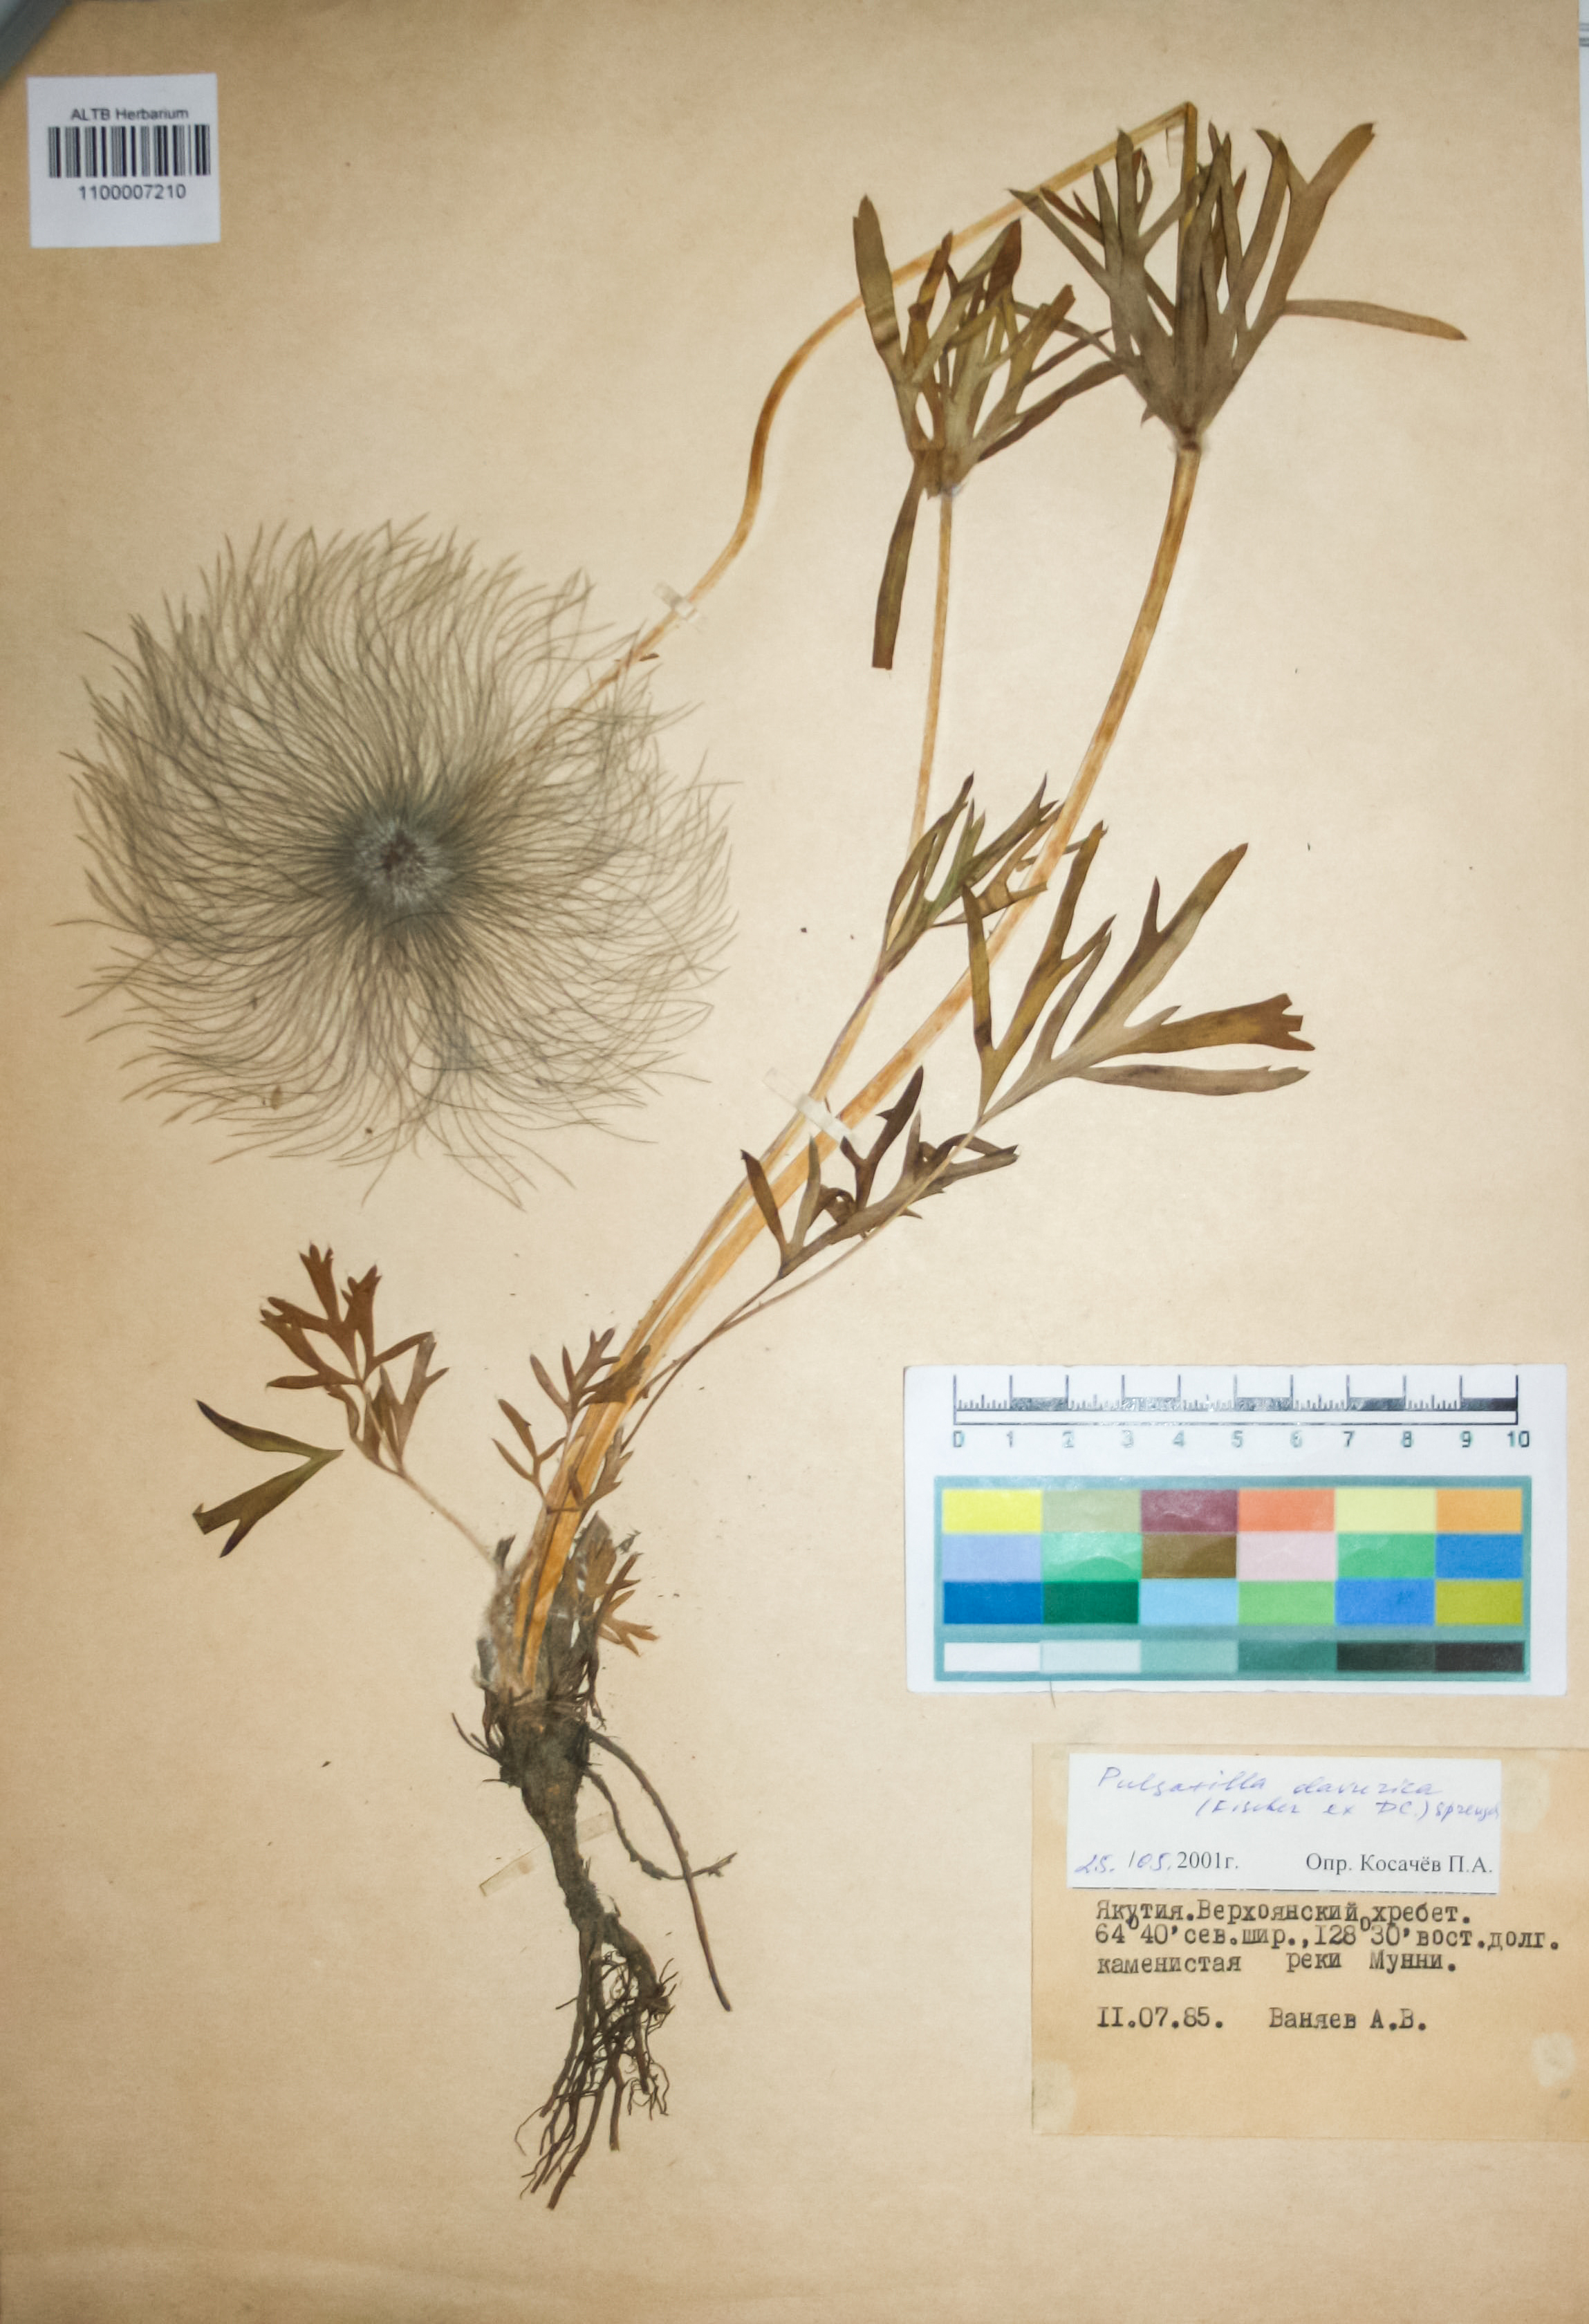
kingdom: Plantae
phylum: Tracheophyta
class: Magnoliopsida
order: Ranunculales
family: Ranunculaceae
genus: Pulsatilla
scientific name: Pulsatilla dahurica
